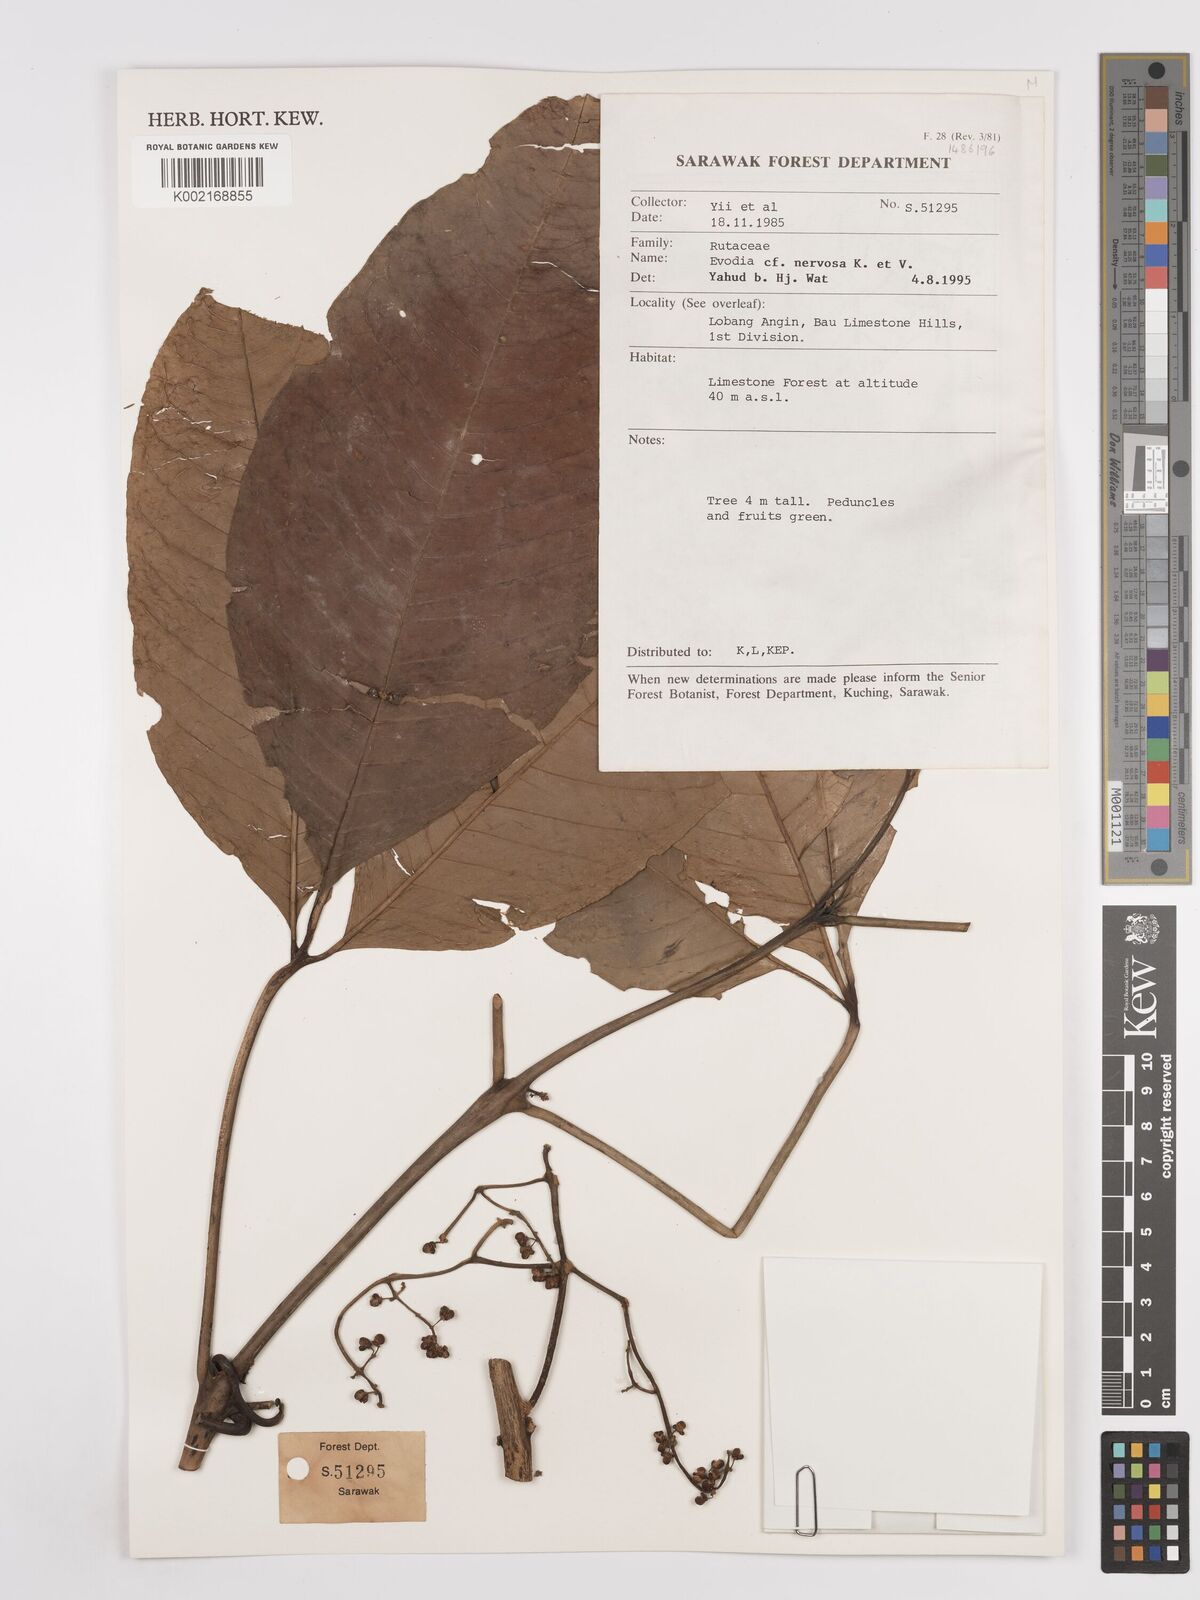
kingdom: Plantae
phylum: Tracheophyta
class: Magnoliopsida
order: Sapindales
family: Rutaceae
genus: Melicope
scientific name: Melicope accedens
